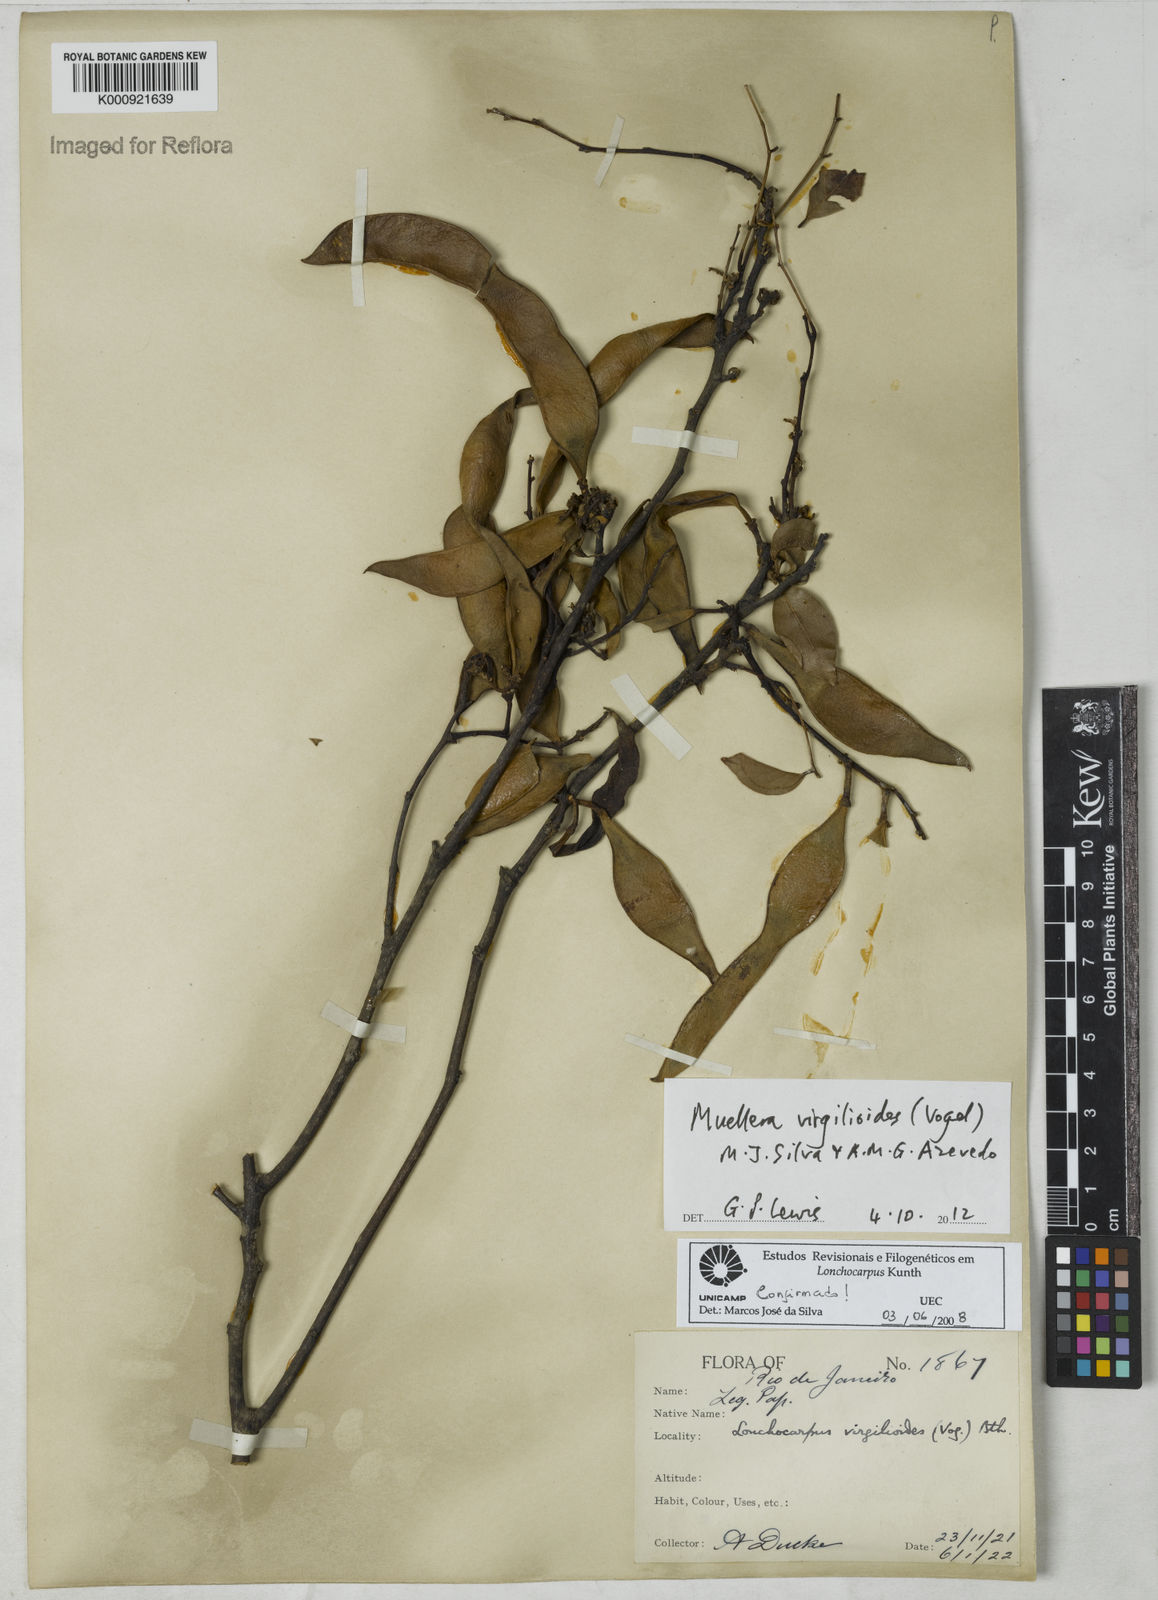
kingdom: Plantae
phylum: Tracheophyta
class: Magnoliopsida
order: Fabales
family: Fabaceae
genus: Muellera
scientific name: Muellera virgilioides
